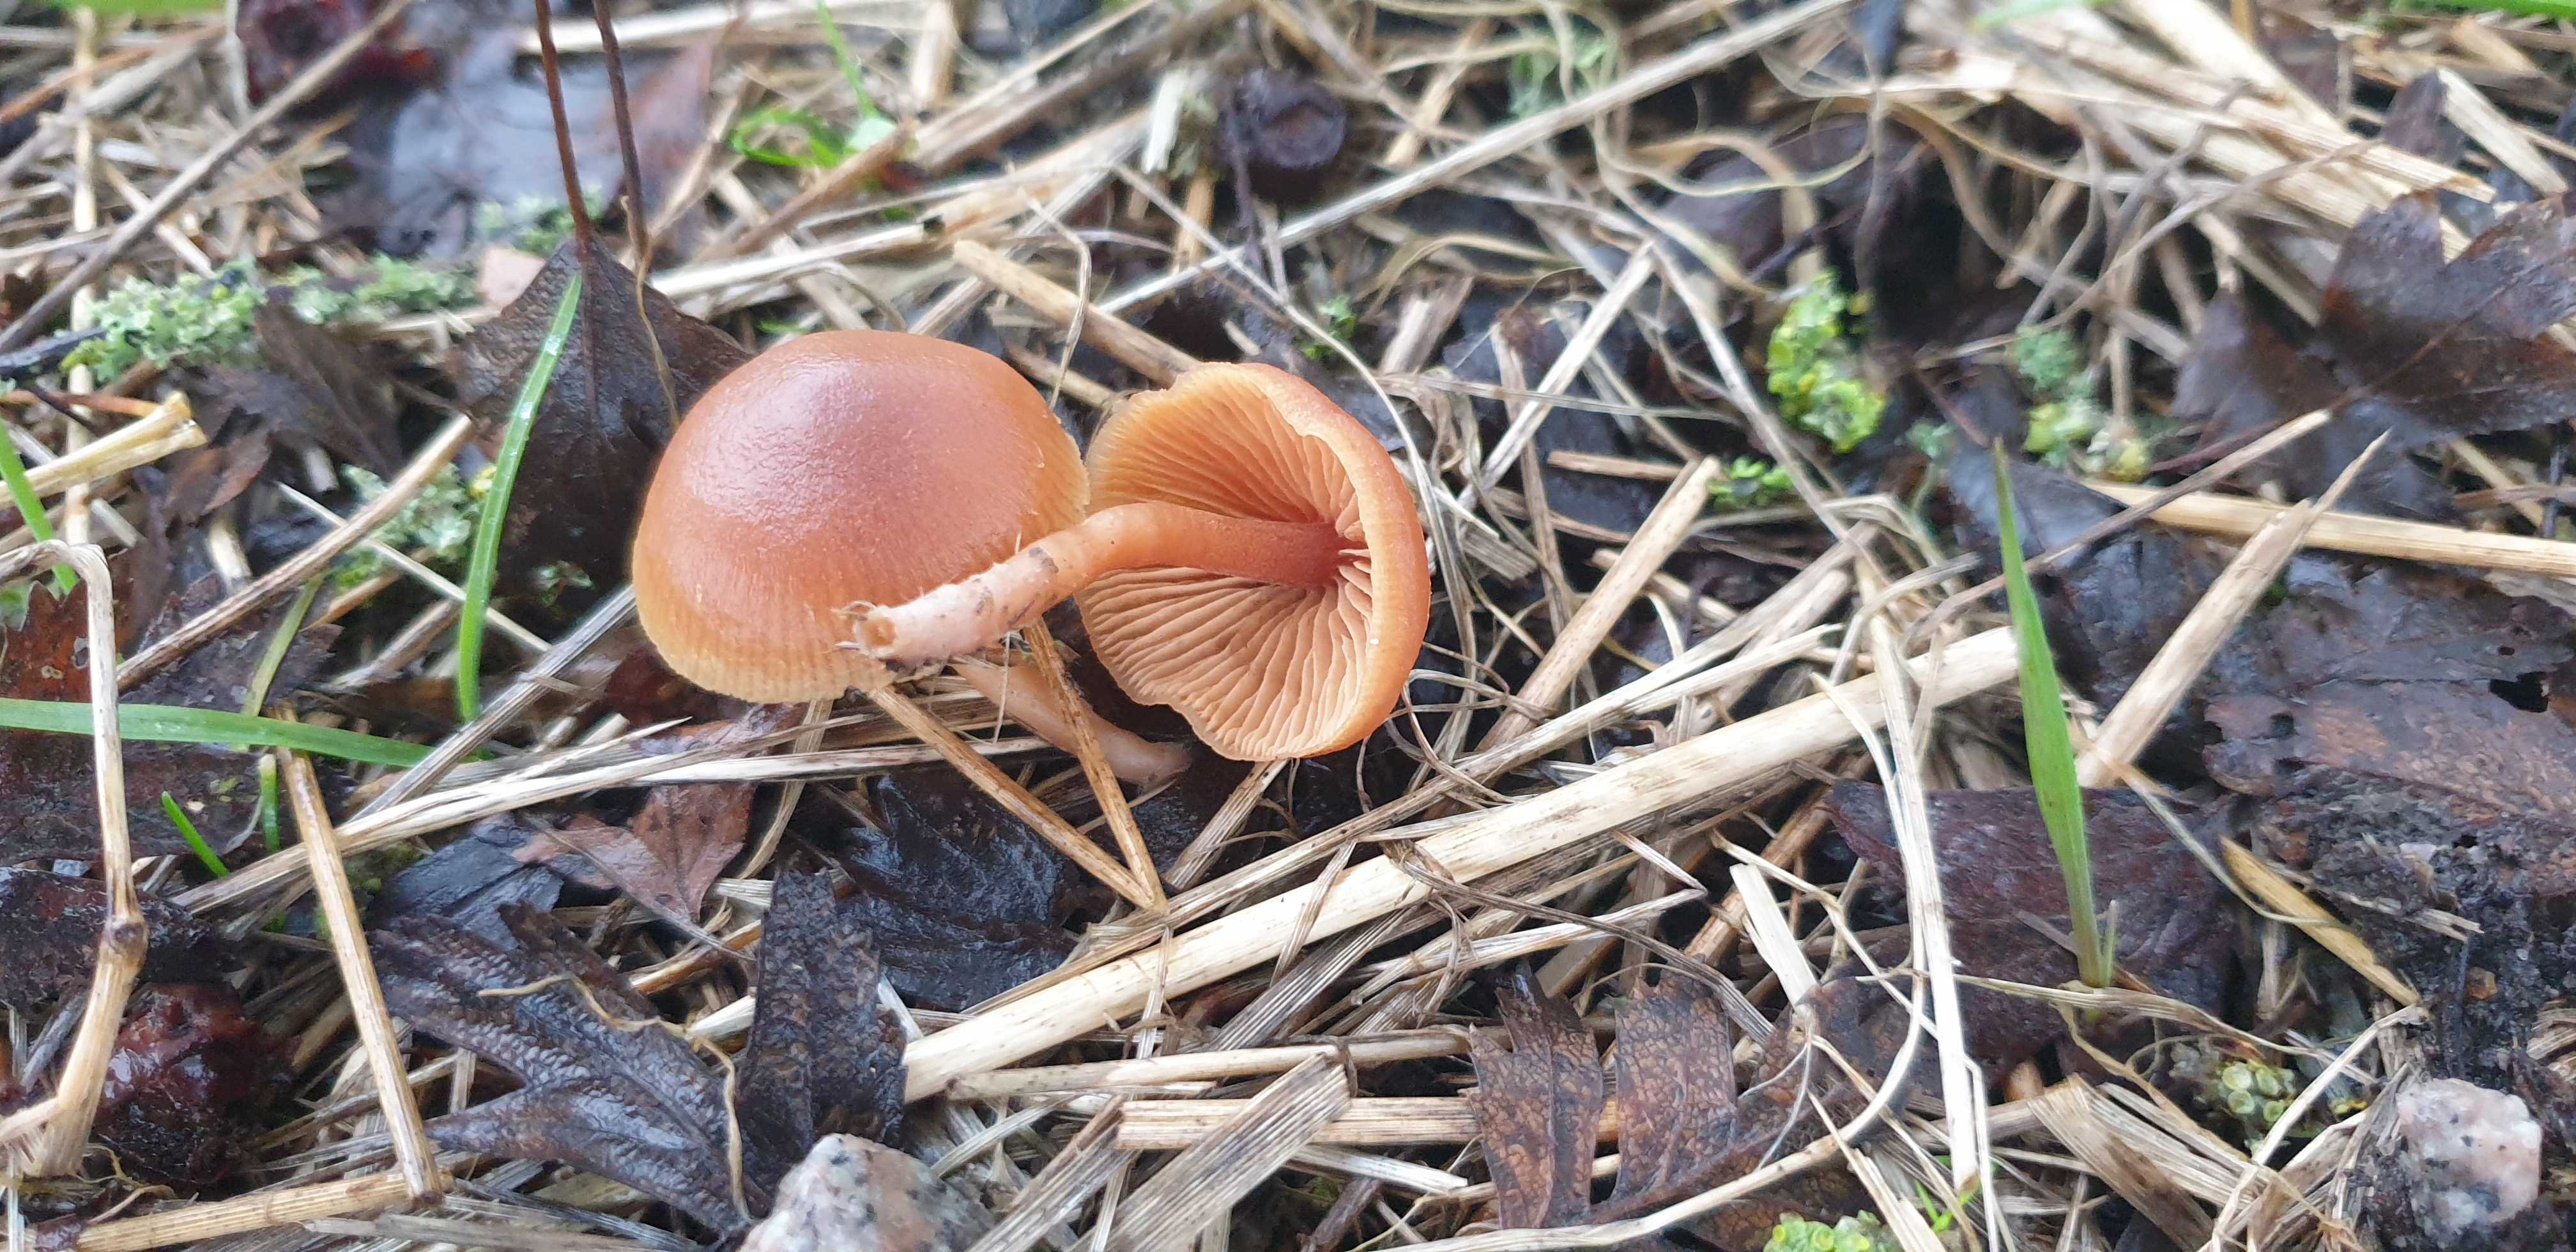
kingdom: Fungi
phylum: Basidiomycota
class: Agaricomycetes
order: Agaricales
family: Tubariaceae
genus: Tubaria
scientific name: Tubaria furfuracea
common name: kliddet fnughat
